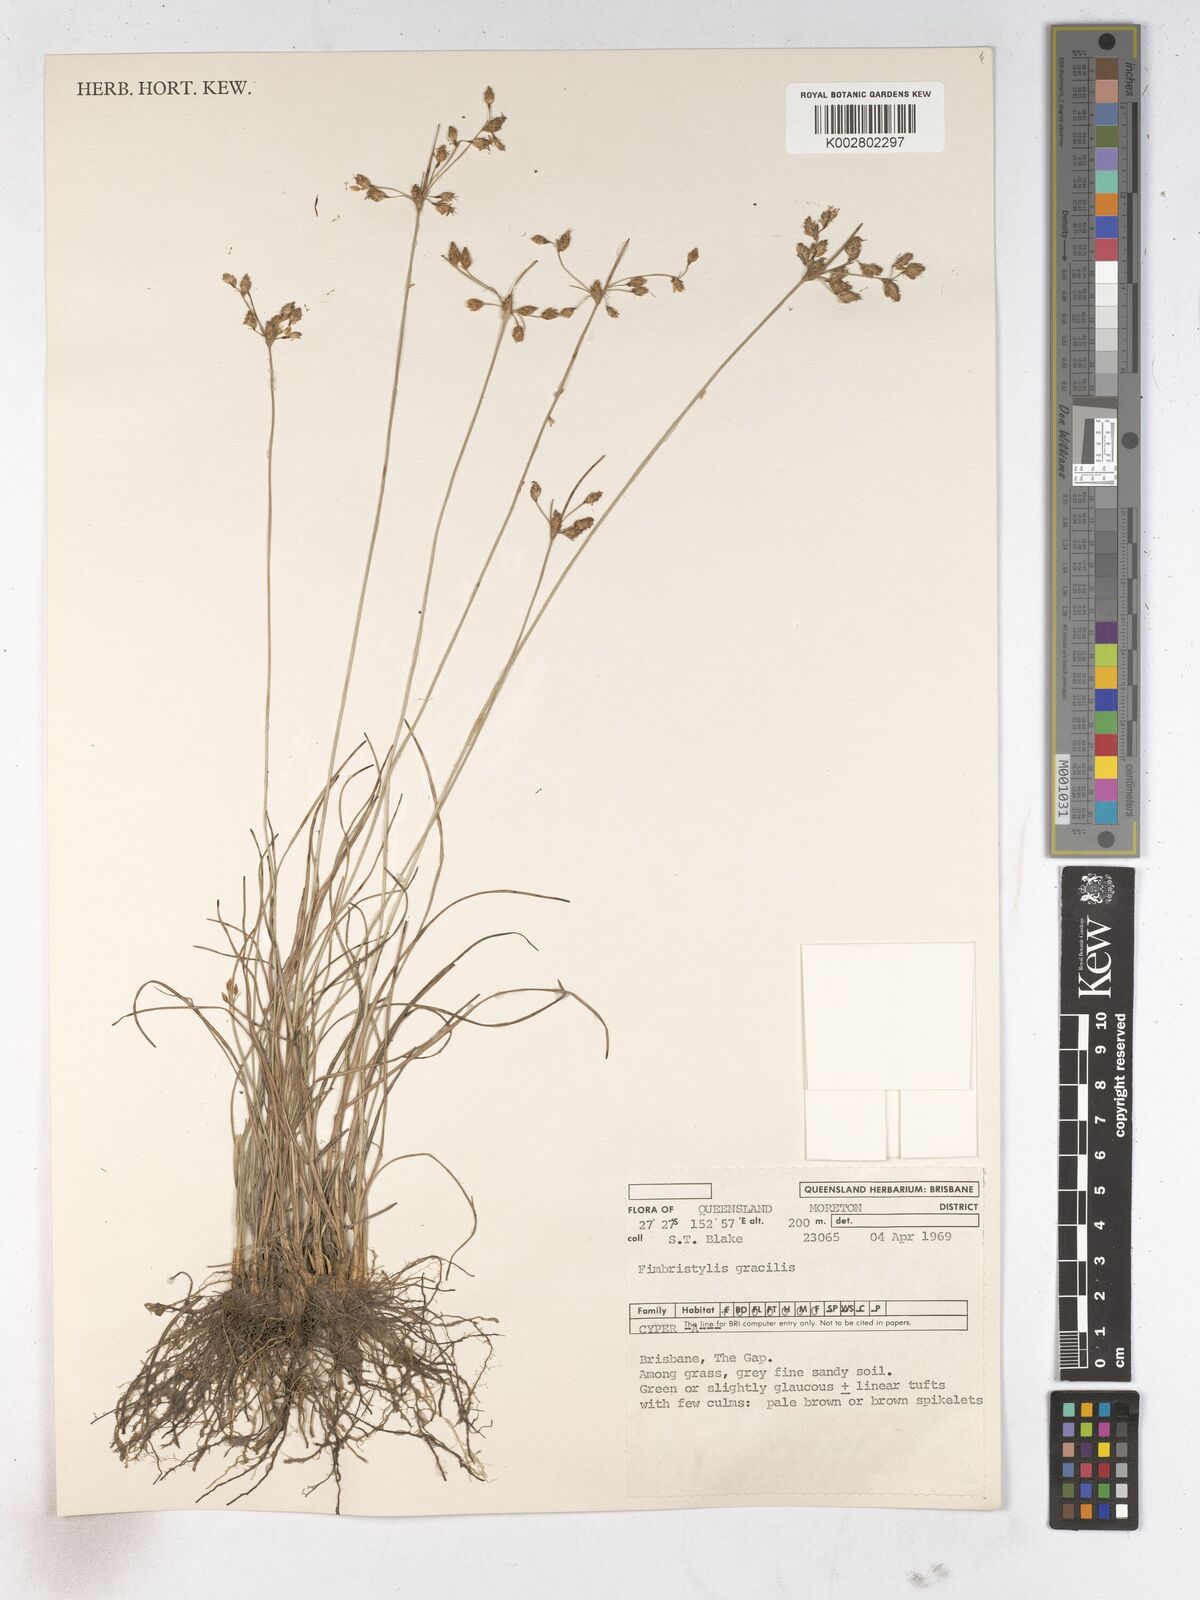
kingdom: Plantae
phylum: Tracheophyta
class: Liliopsida
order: Poales
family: Cyperaceae
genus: Fimbristylis
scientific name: Fimbristylis dichotoma
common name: Forked fimbry
